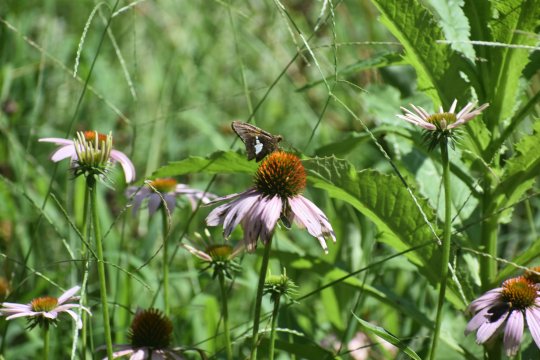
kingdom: Animalia
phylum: Arthropoda
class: Insecta
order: Lepidoptera
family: Hesperiidae
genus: Epargyreus
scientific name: Epargyreus clarus
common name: Silver-spotted Skipper
